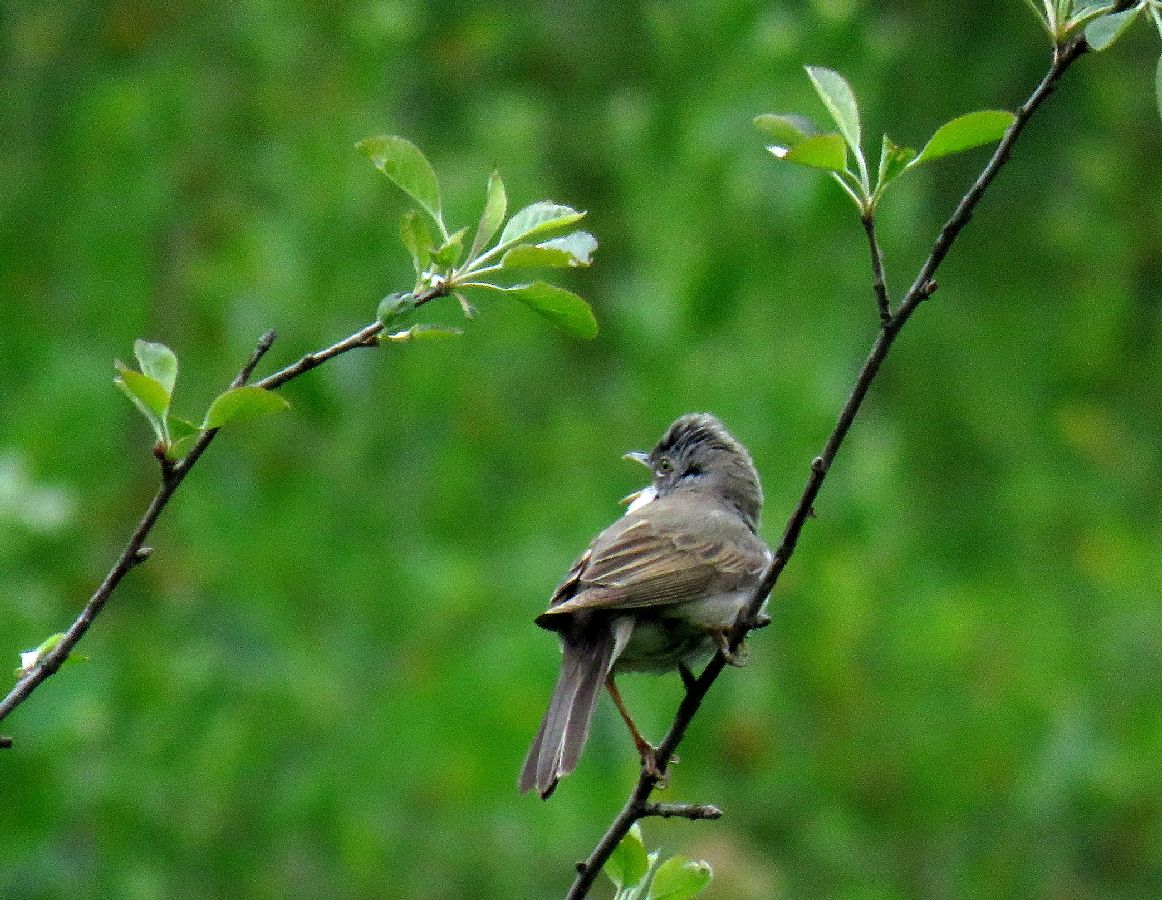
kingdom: Animalia
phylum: Chordata
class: Aves
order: Passeriformes
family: Sylviidae
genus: Sylvia
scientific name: Sylvia communis
